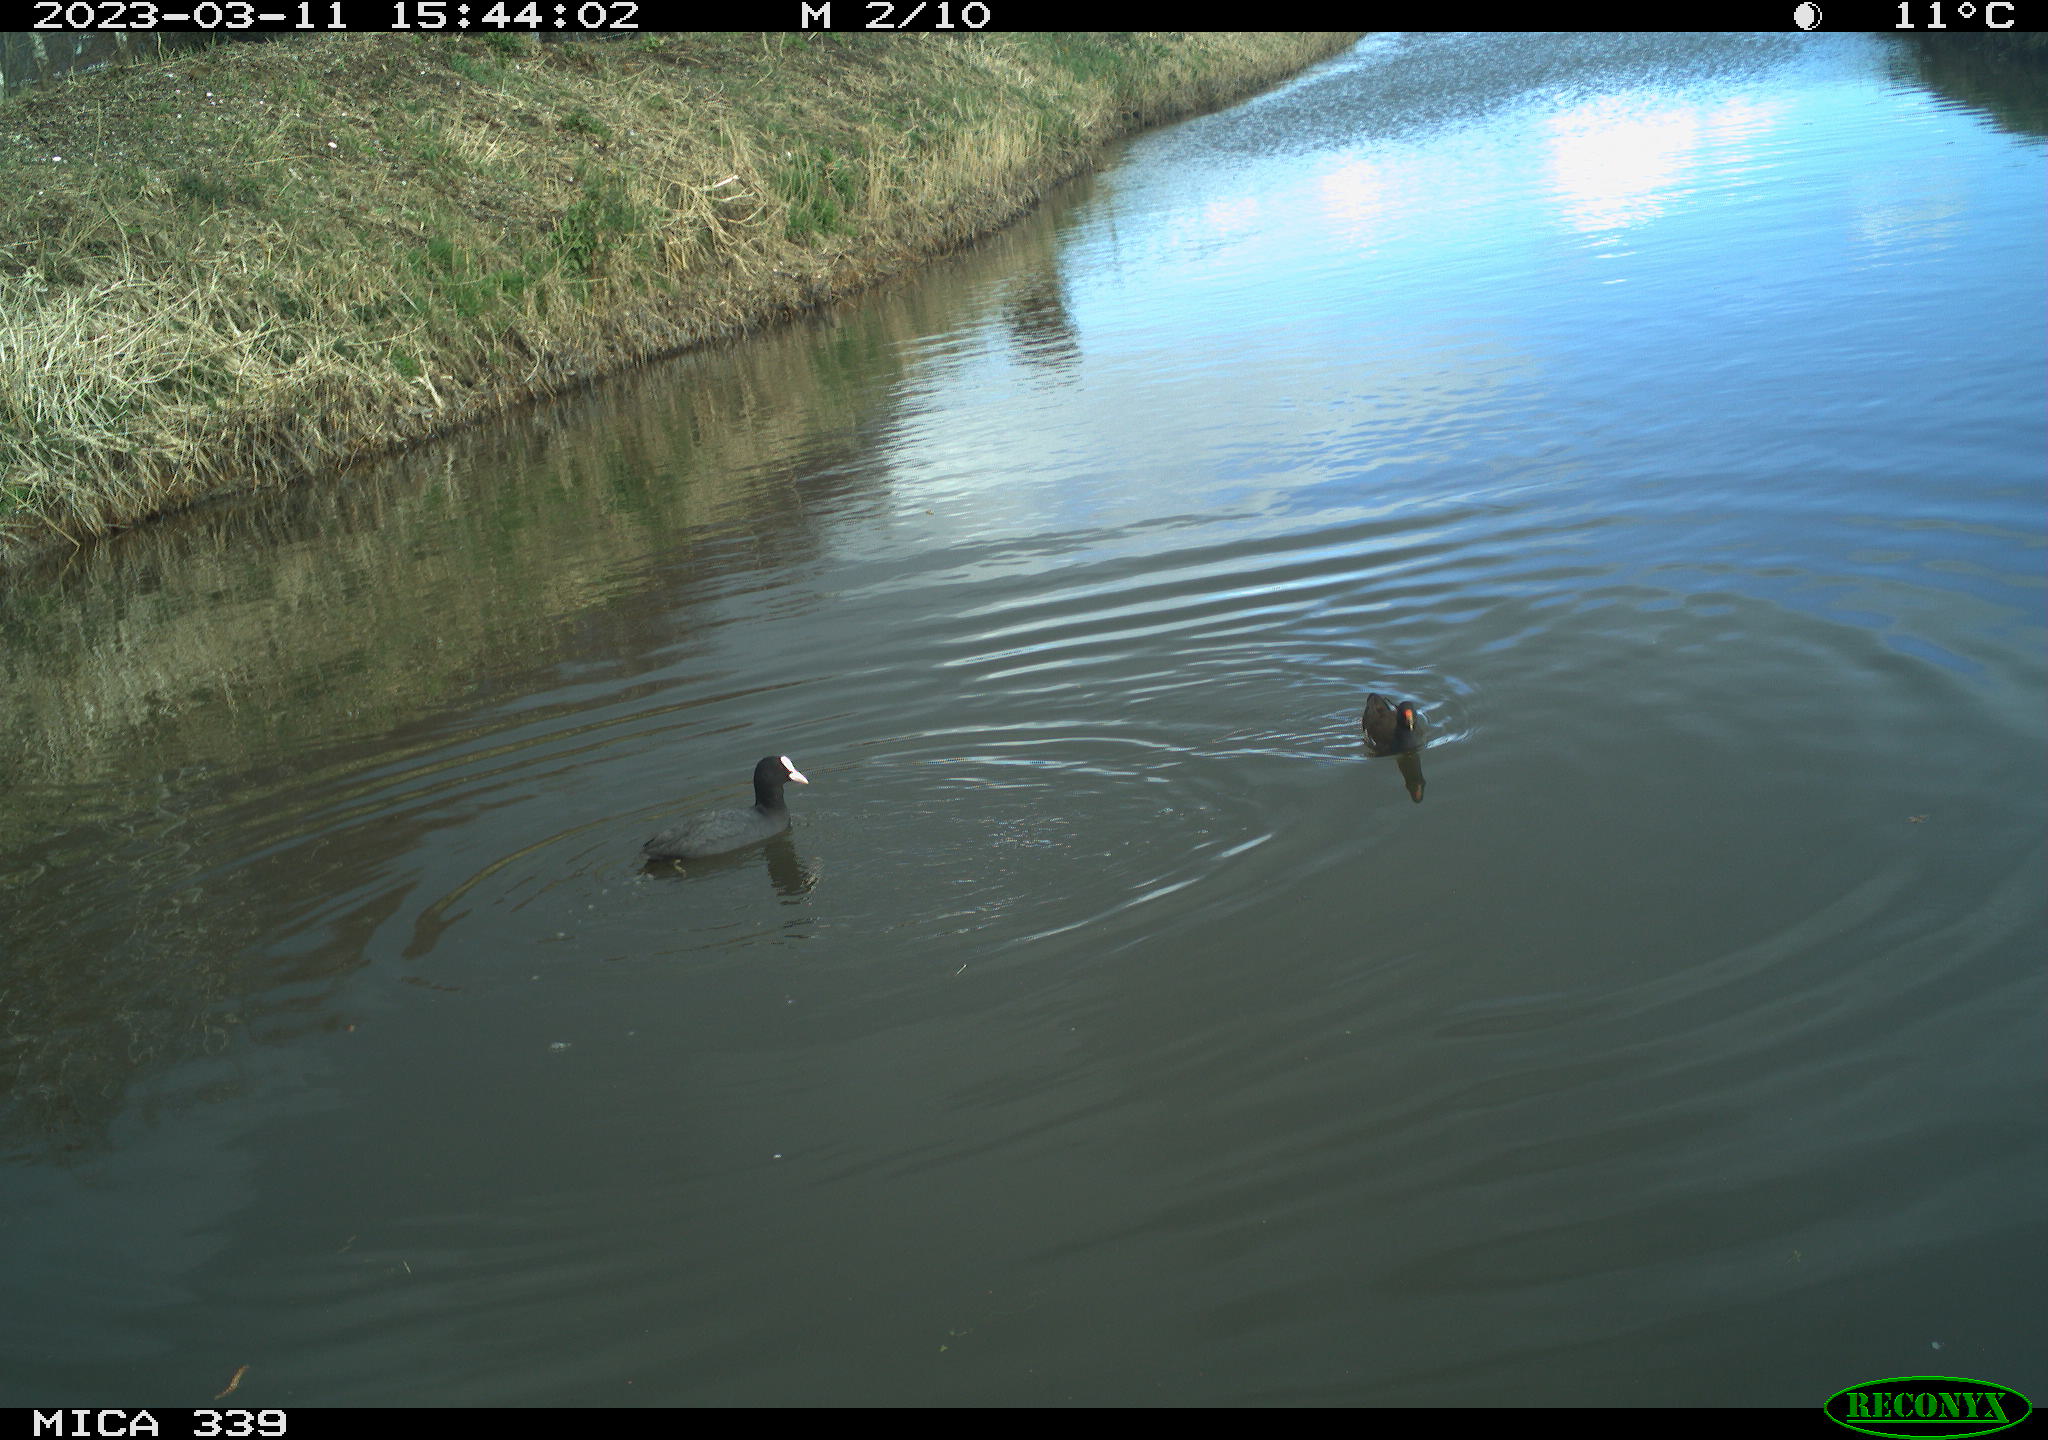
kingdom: Animalia
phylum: Chordata
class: Aves
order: Gruiformes
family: Rallidae
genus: Fulica
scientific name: Fulica atra
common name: Eurasian coot
